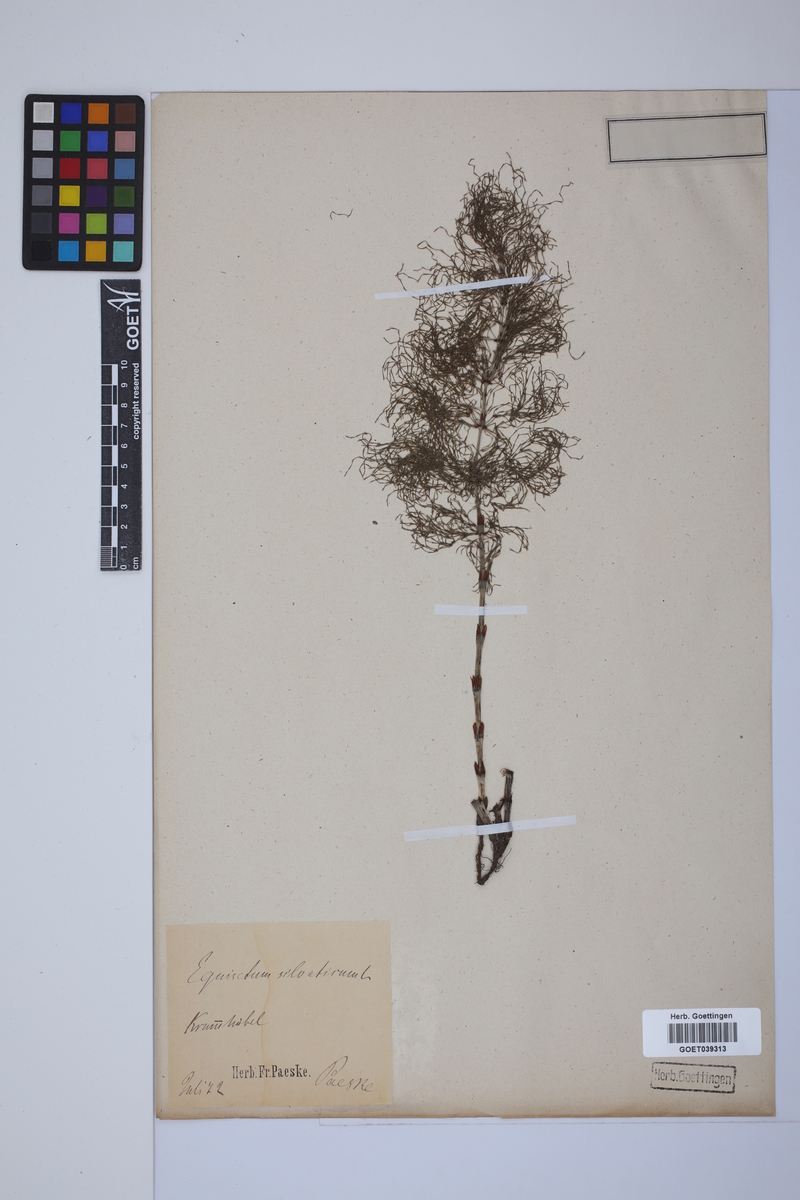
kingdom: Plantae
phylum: Tracheophyta
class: Polypodiopsida
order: Equisetales
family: Equisetaceae
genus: Equisetum
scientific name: Equisetum sylvaticum
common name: Wood horsetail
